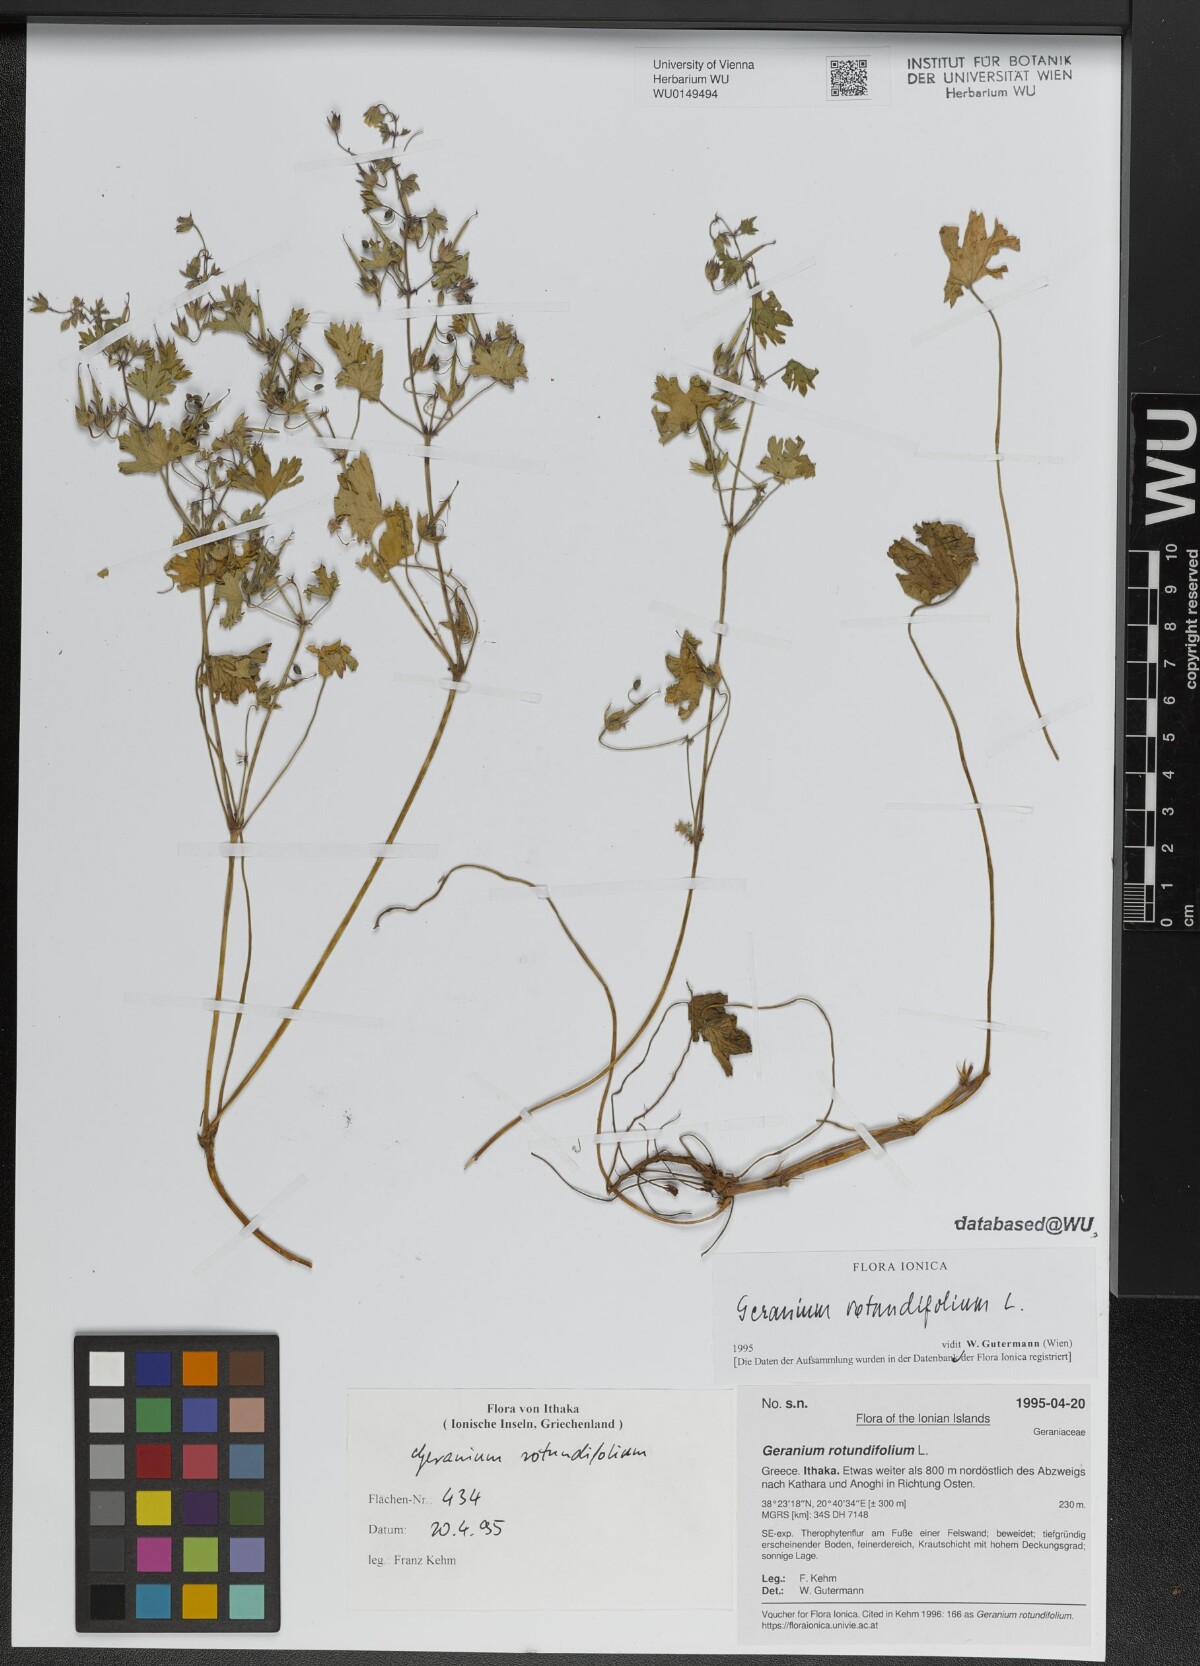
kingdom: Plantae
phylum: Tracheophyta
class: Magnoliopsida
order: Geraniales
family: Geraniaceae
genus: Geranium
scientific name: Geranium rotundifolium
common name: Round-leaved crane's-bill
